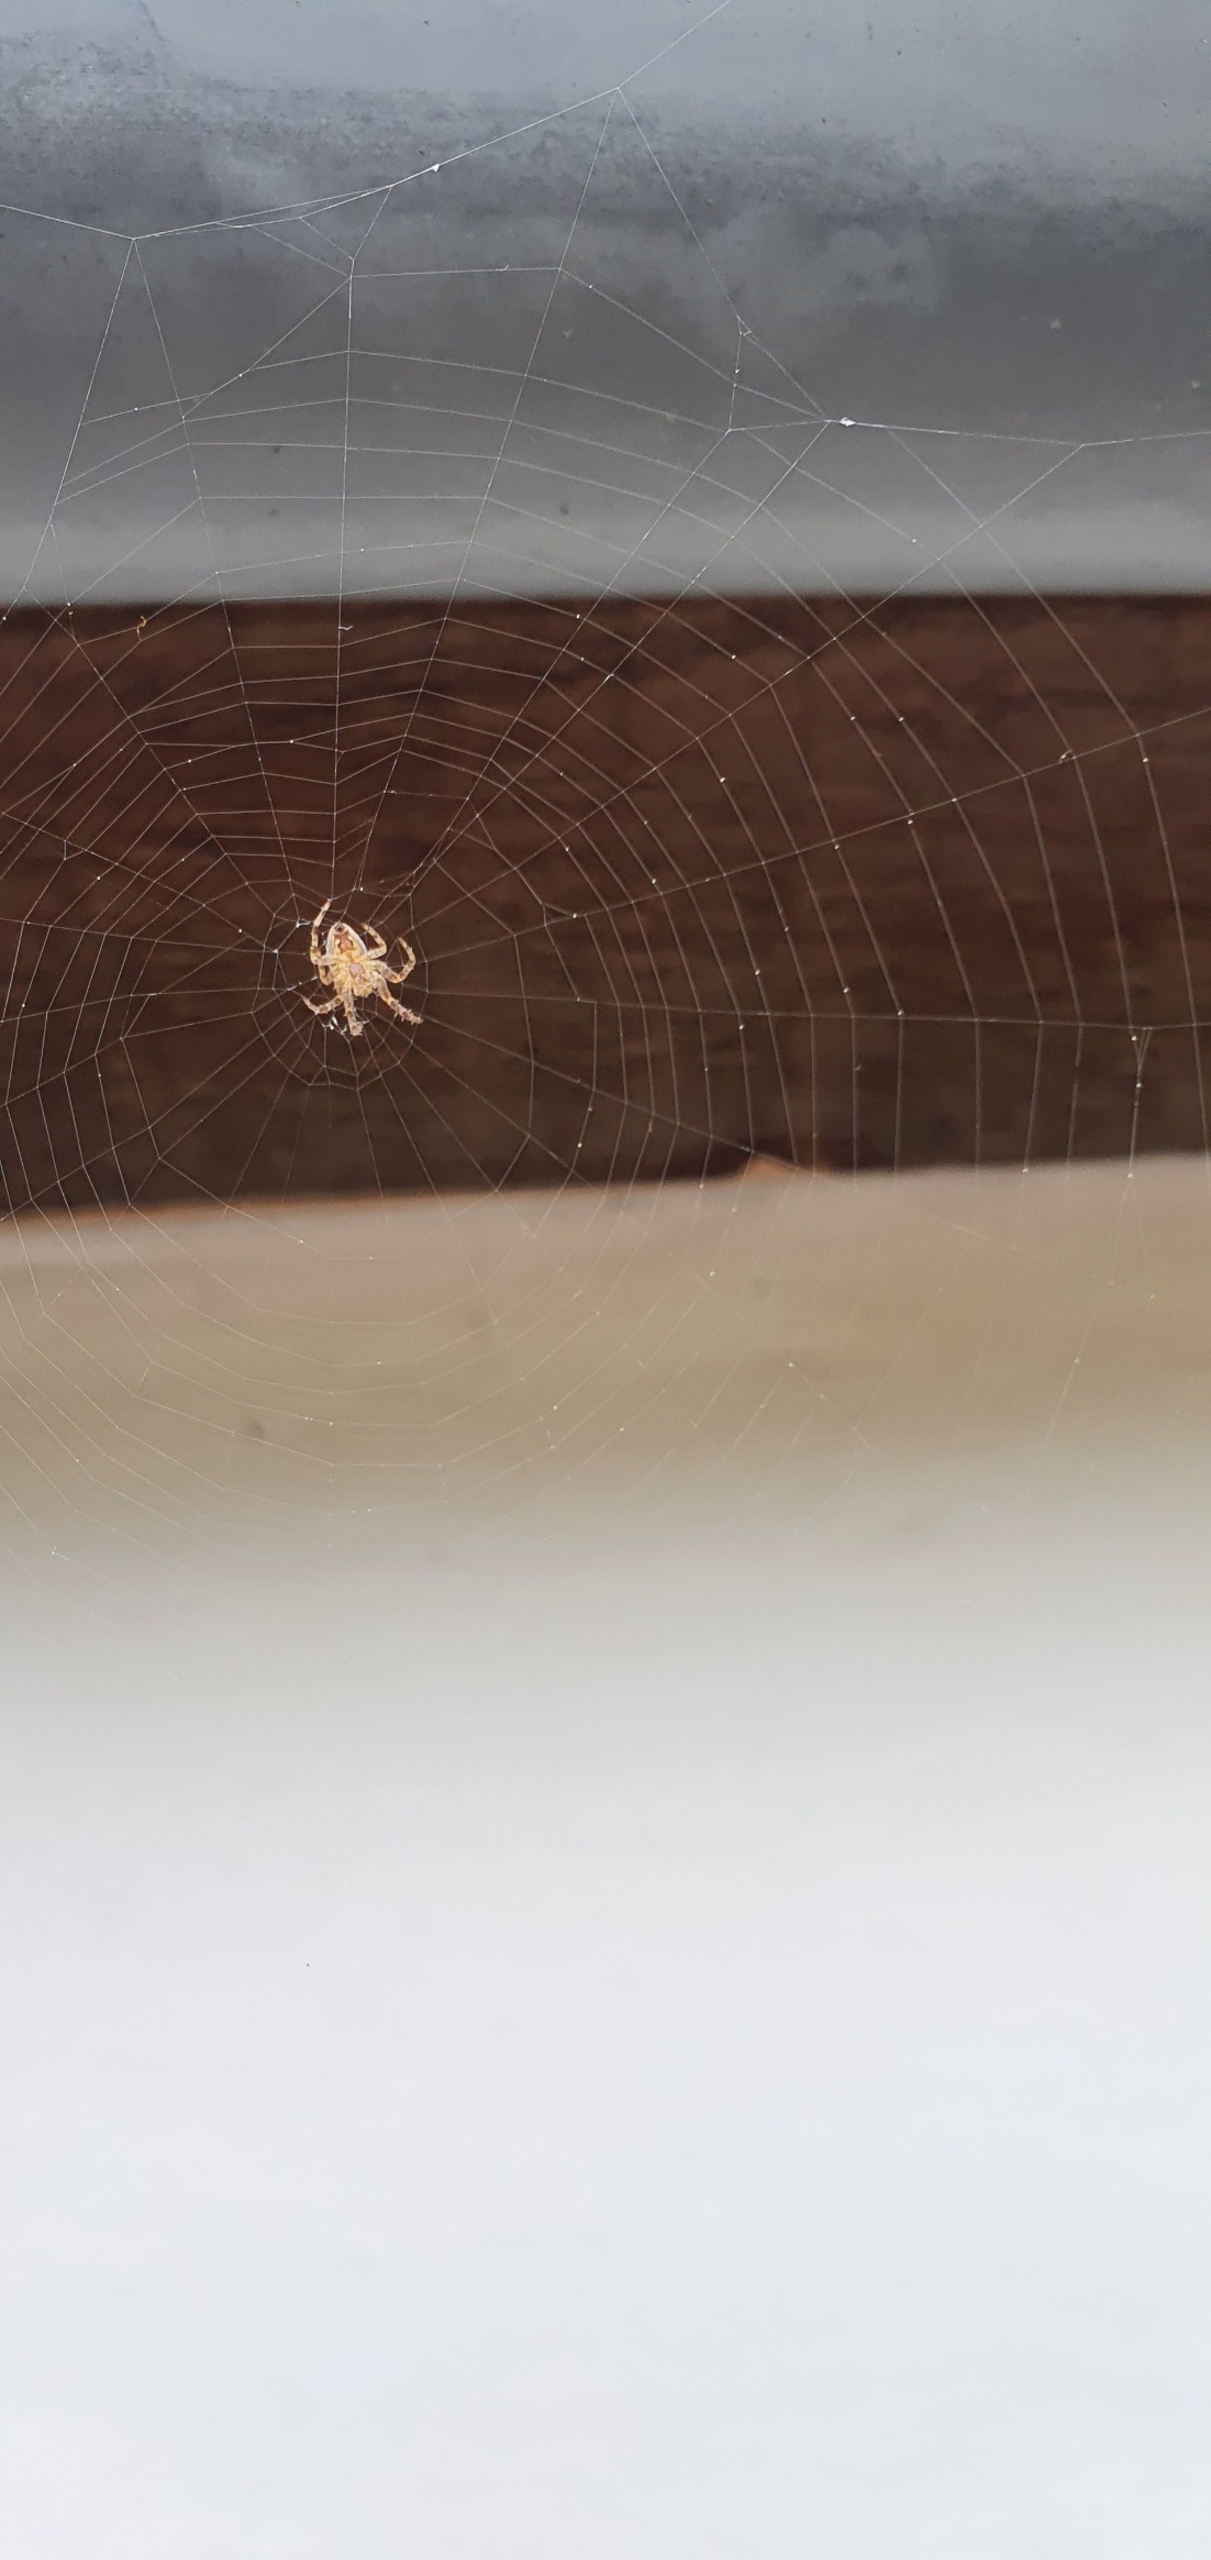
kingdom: Animalia
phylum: Arthropoda
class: Arachnida
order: Araneae
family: Araneidae
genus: Araneus
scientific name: Araneus diadematus
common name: Korsedderkop
